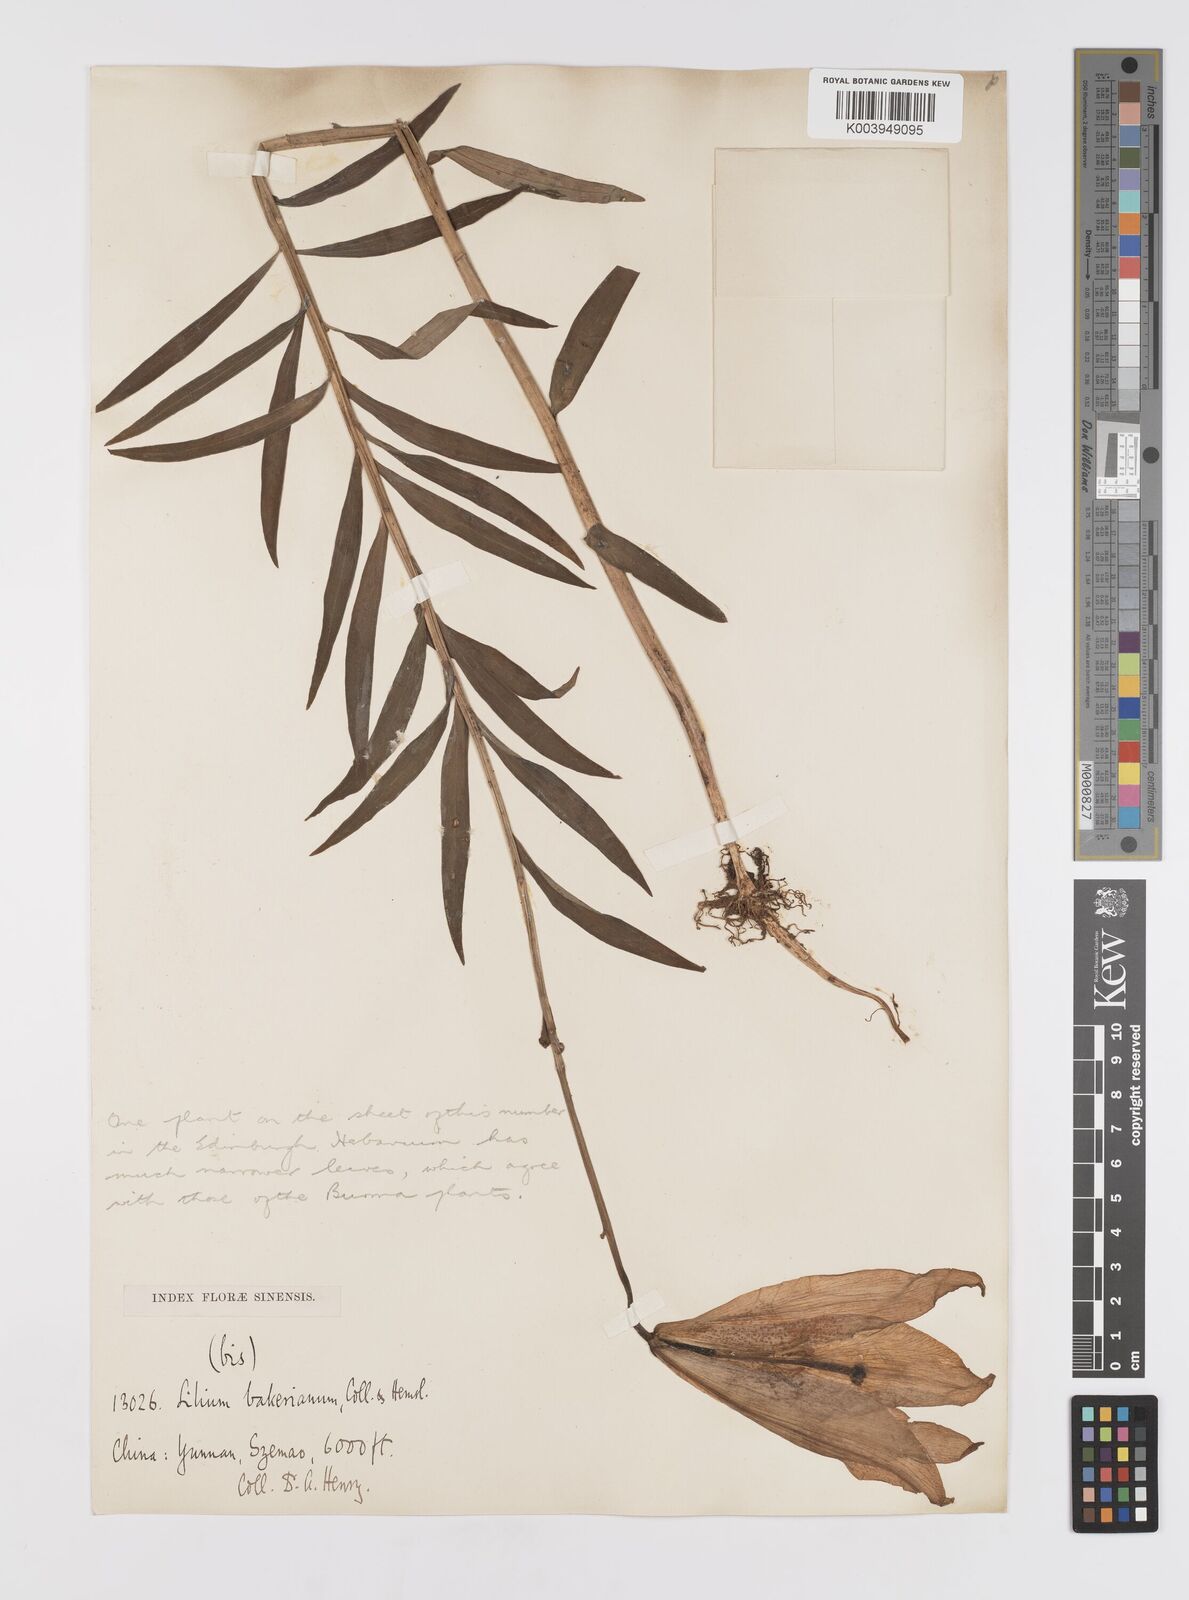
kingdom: Plantae
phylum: Tracheophyta
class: Liliopsida
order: Liliales
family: Liliaceae
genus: Lilium
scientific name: Lilium bakerianum
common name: Baker's lily
